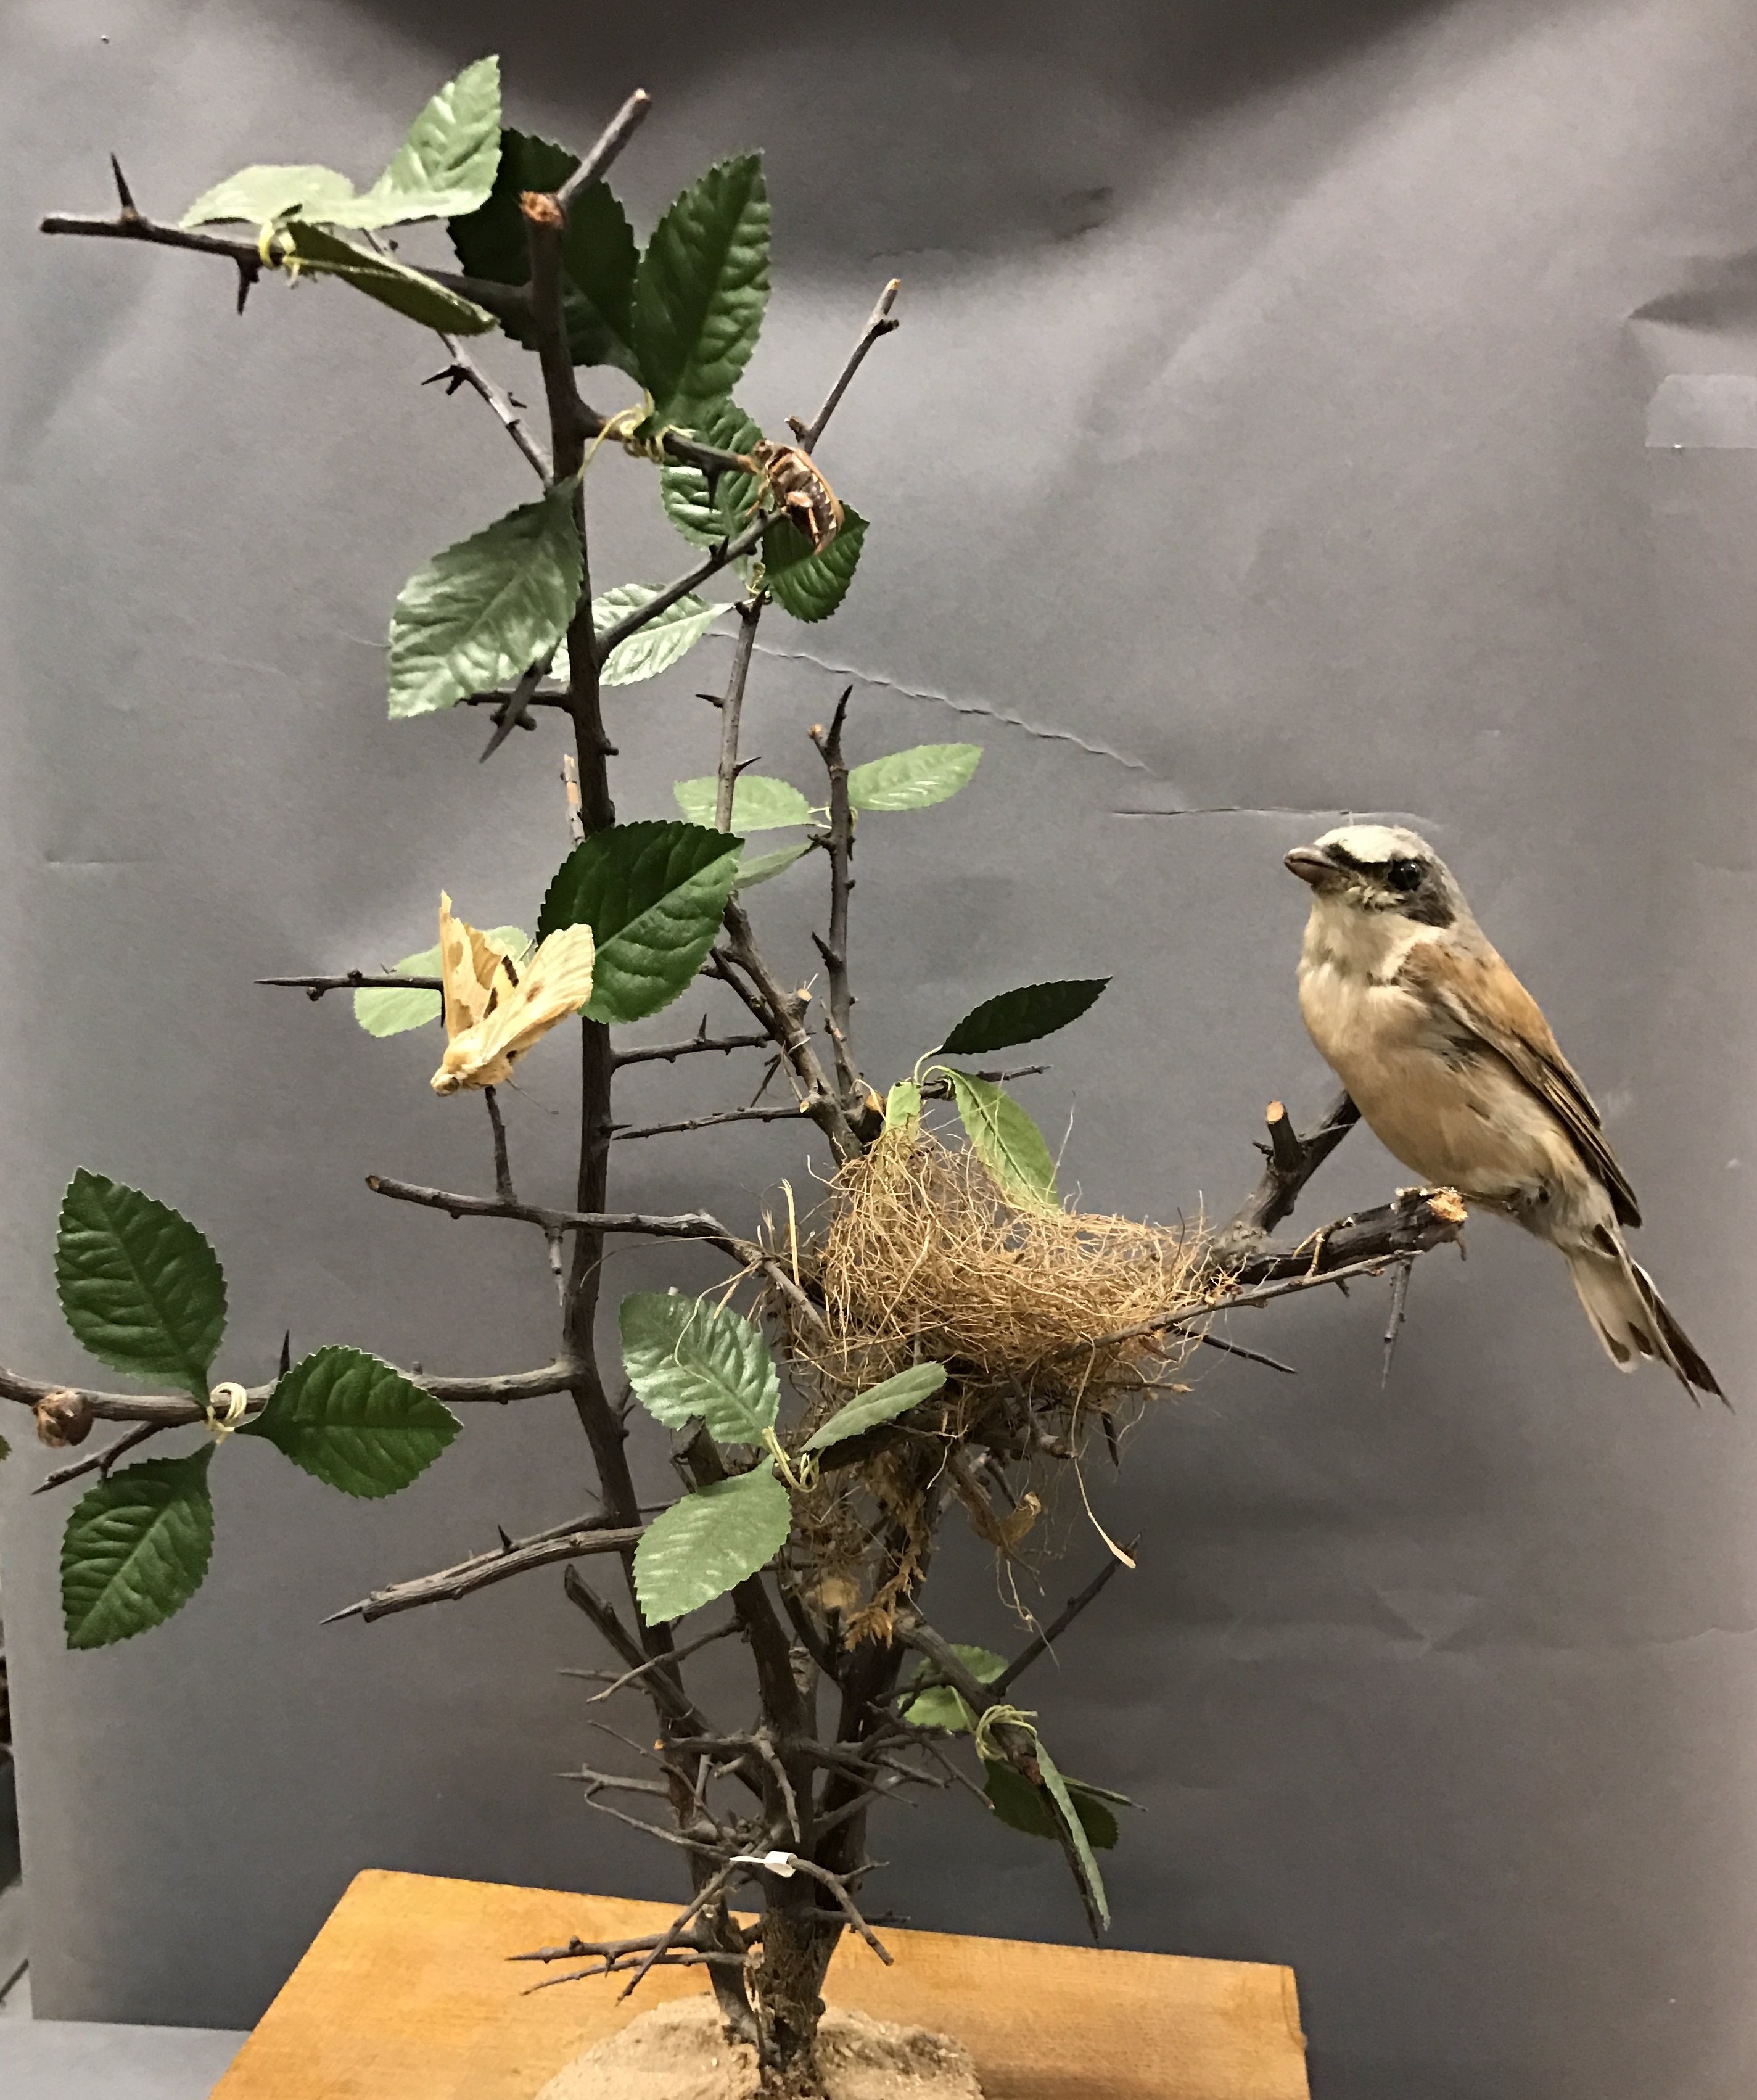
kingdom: Animalia
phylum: Chordata
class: Aves
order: Passeriformes
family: Laniidae
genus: Lanius
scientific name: Lanius collurio
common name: Red-backed shrike
